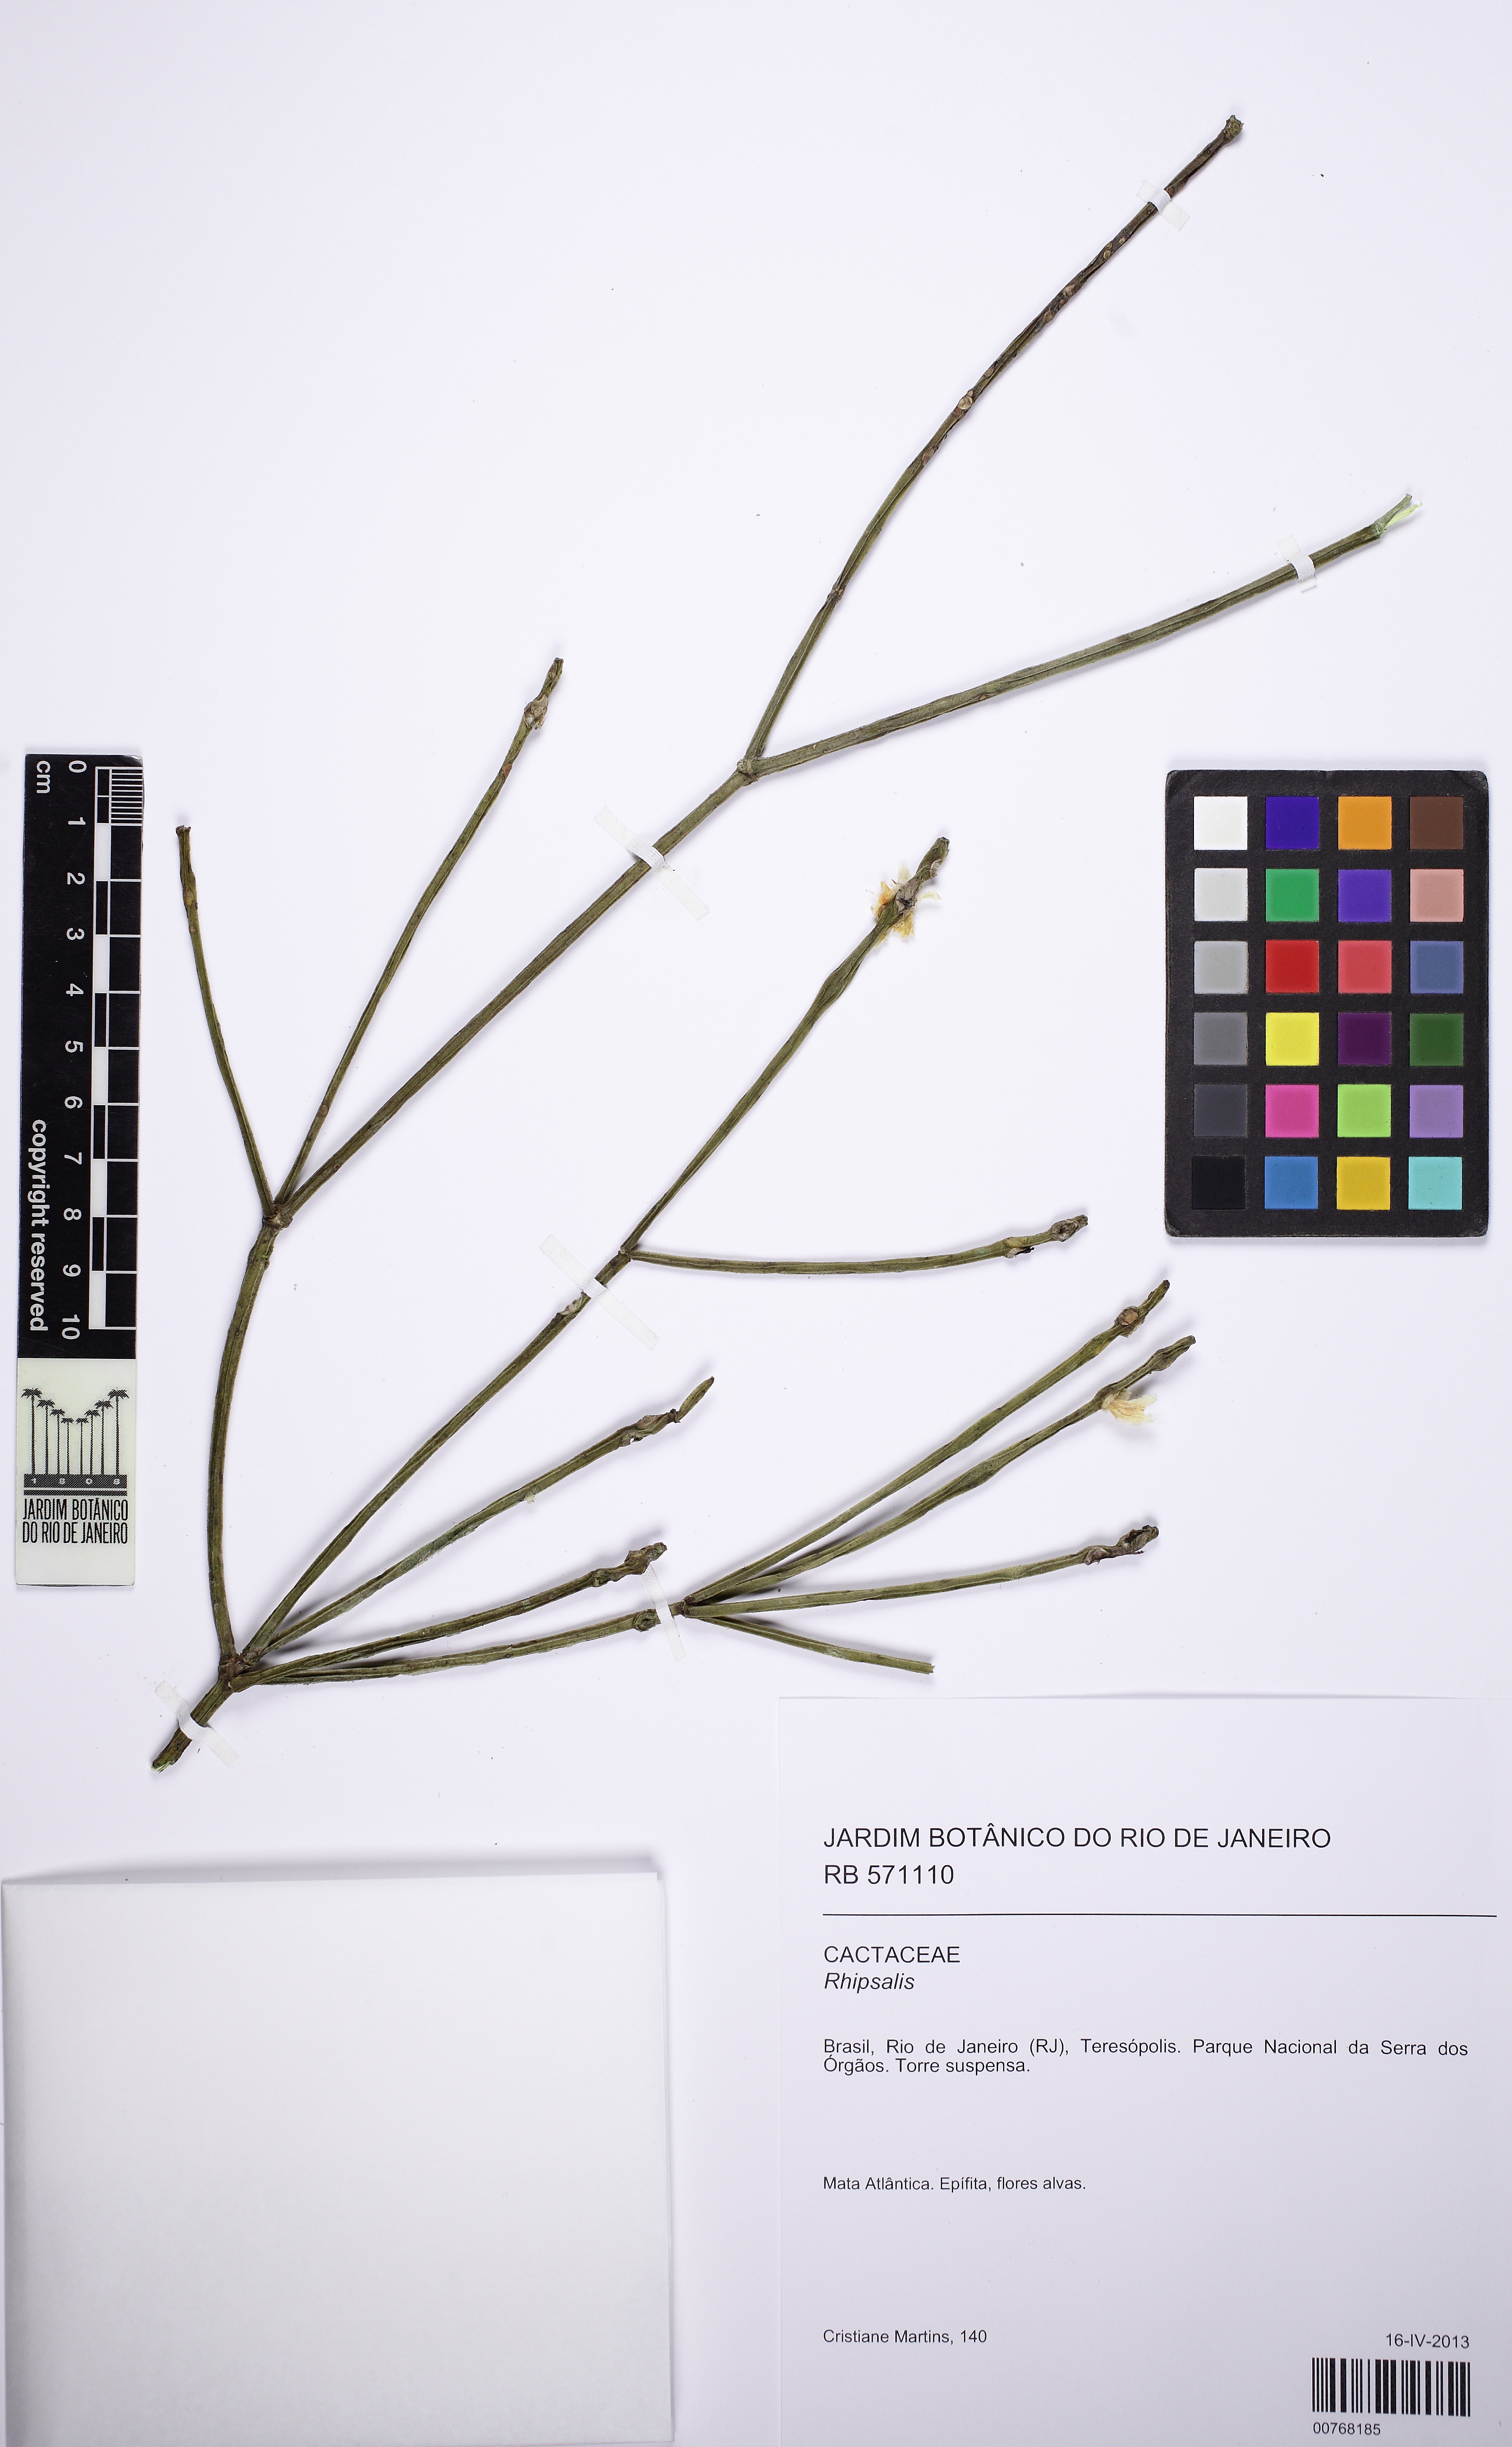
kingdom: Plantae
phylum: Tracheophyta
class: Magnoliopsida
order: Caryophyllales
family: Cactaceae
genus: Rhipsalis
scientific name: Rhipsalis neves-armondii
